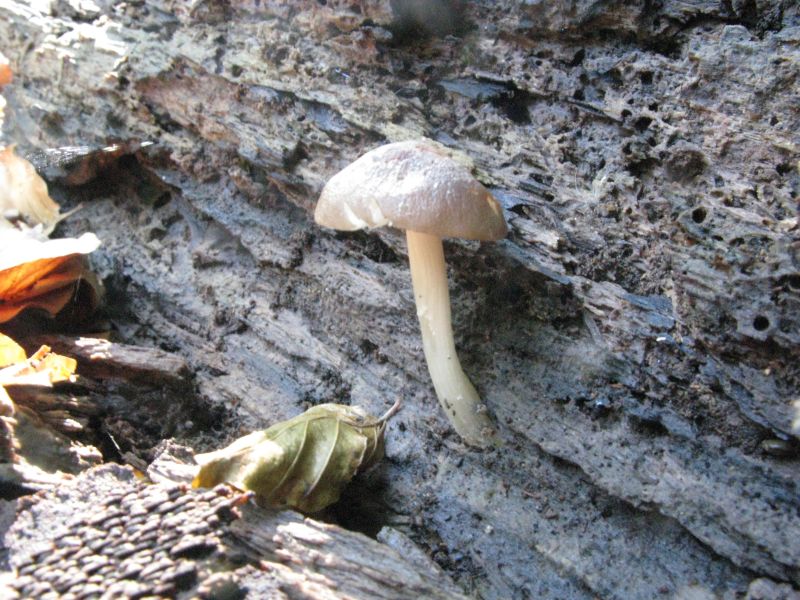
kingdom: Fungi
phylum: Basidiomycota
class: Agaricomycetes
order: Agaricales
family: Pluteaceae
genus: Pluteus
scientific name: Pluteus phlebophorus
